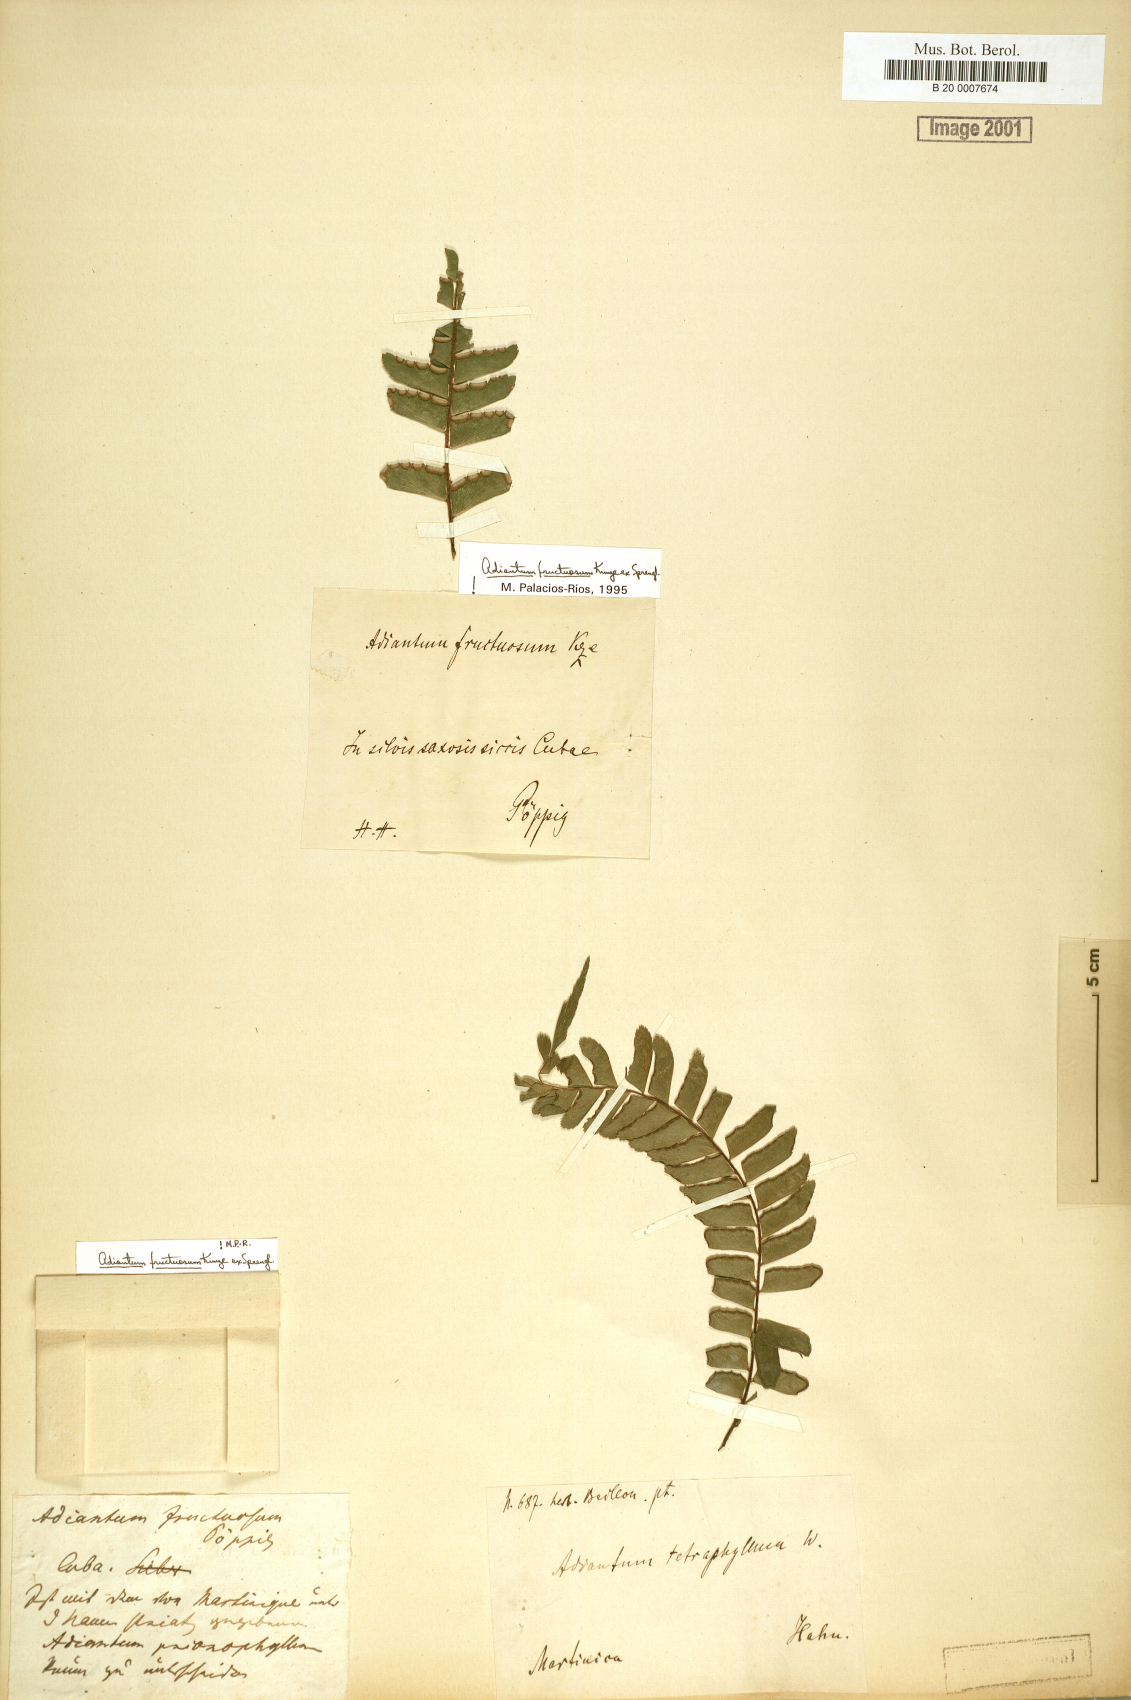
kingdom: Plantae
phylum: Tracheophyta
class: Polypodiopsida
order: Polypodiales
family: Pteridaceae
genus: Adiantum
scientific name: Adiantum tetraphyllum
